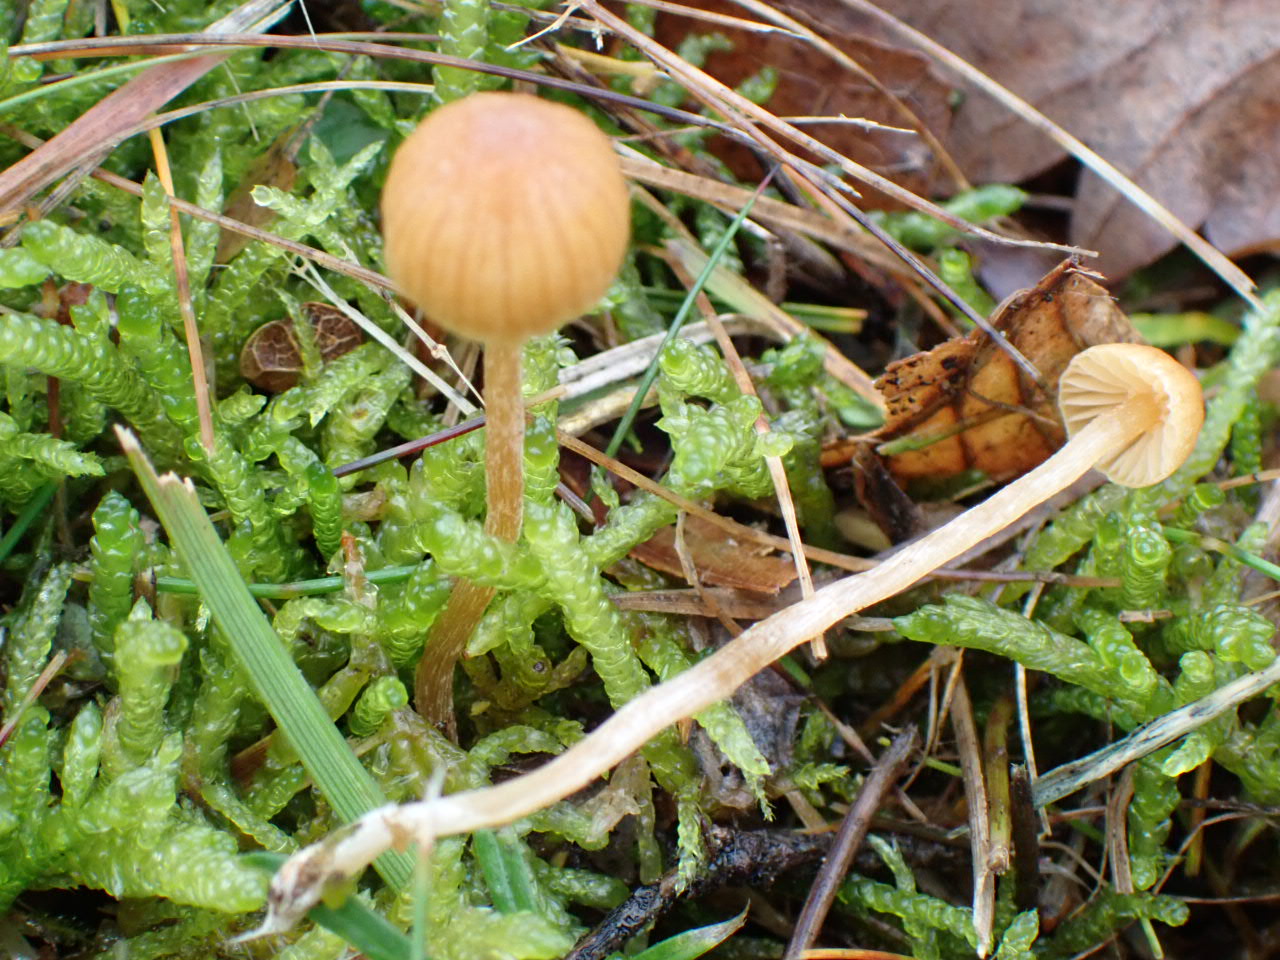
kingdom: Fungi
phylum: Basidiomycota
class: Agaricomycetes
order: Agaricales
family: Hymenogastraceae
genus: Galerina
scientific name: Galerina
